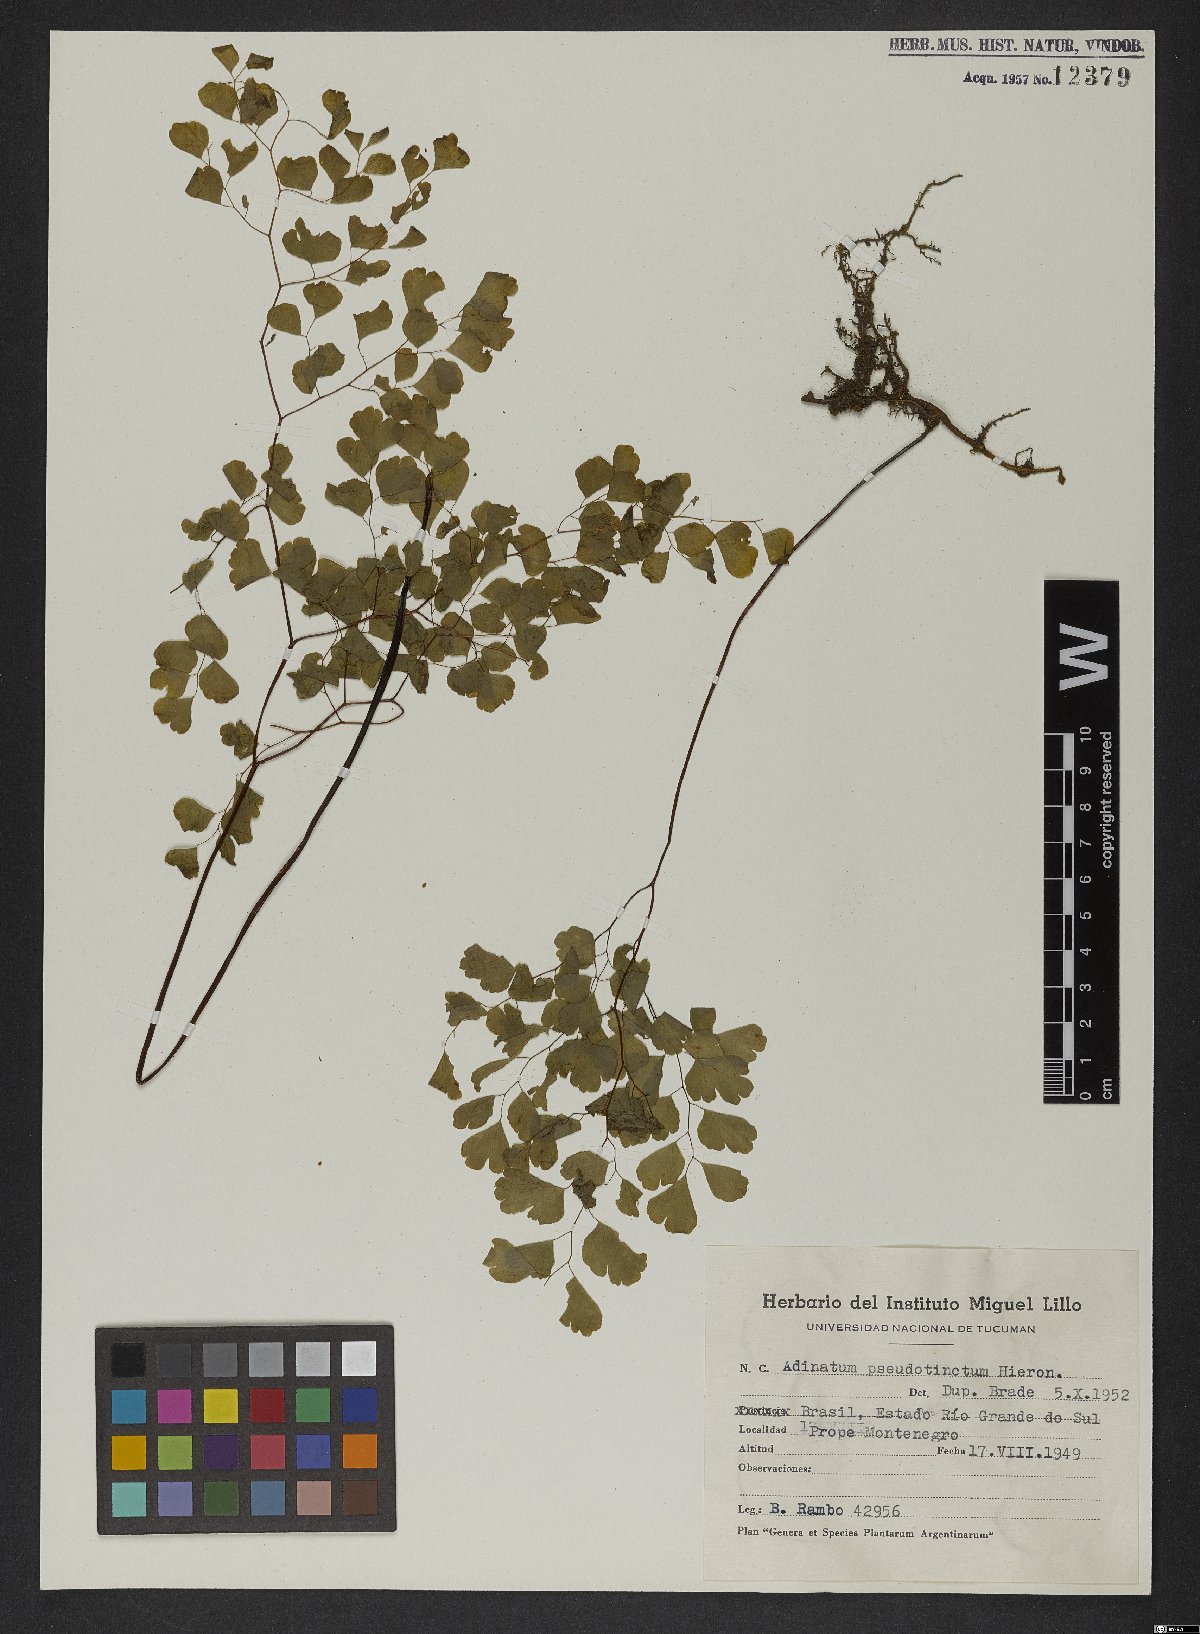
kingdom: Plantae
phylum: Tracheophyta
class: Polypodiopsida
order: Polypodiales
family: Pteridaceae
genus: Adiantum
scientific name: Adiantum pseudotinctum
